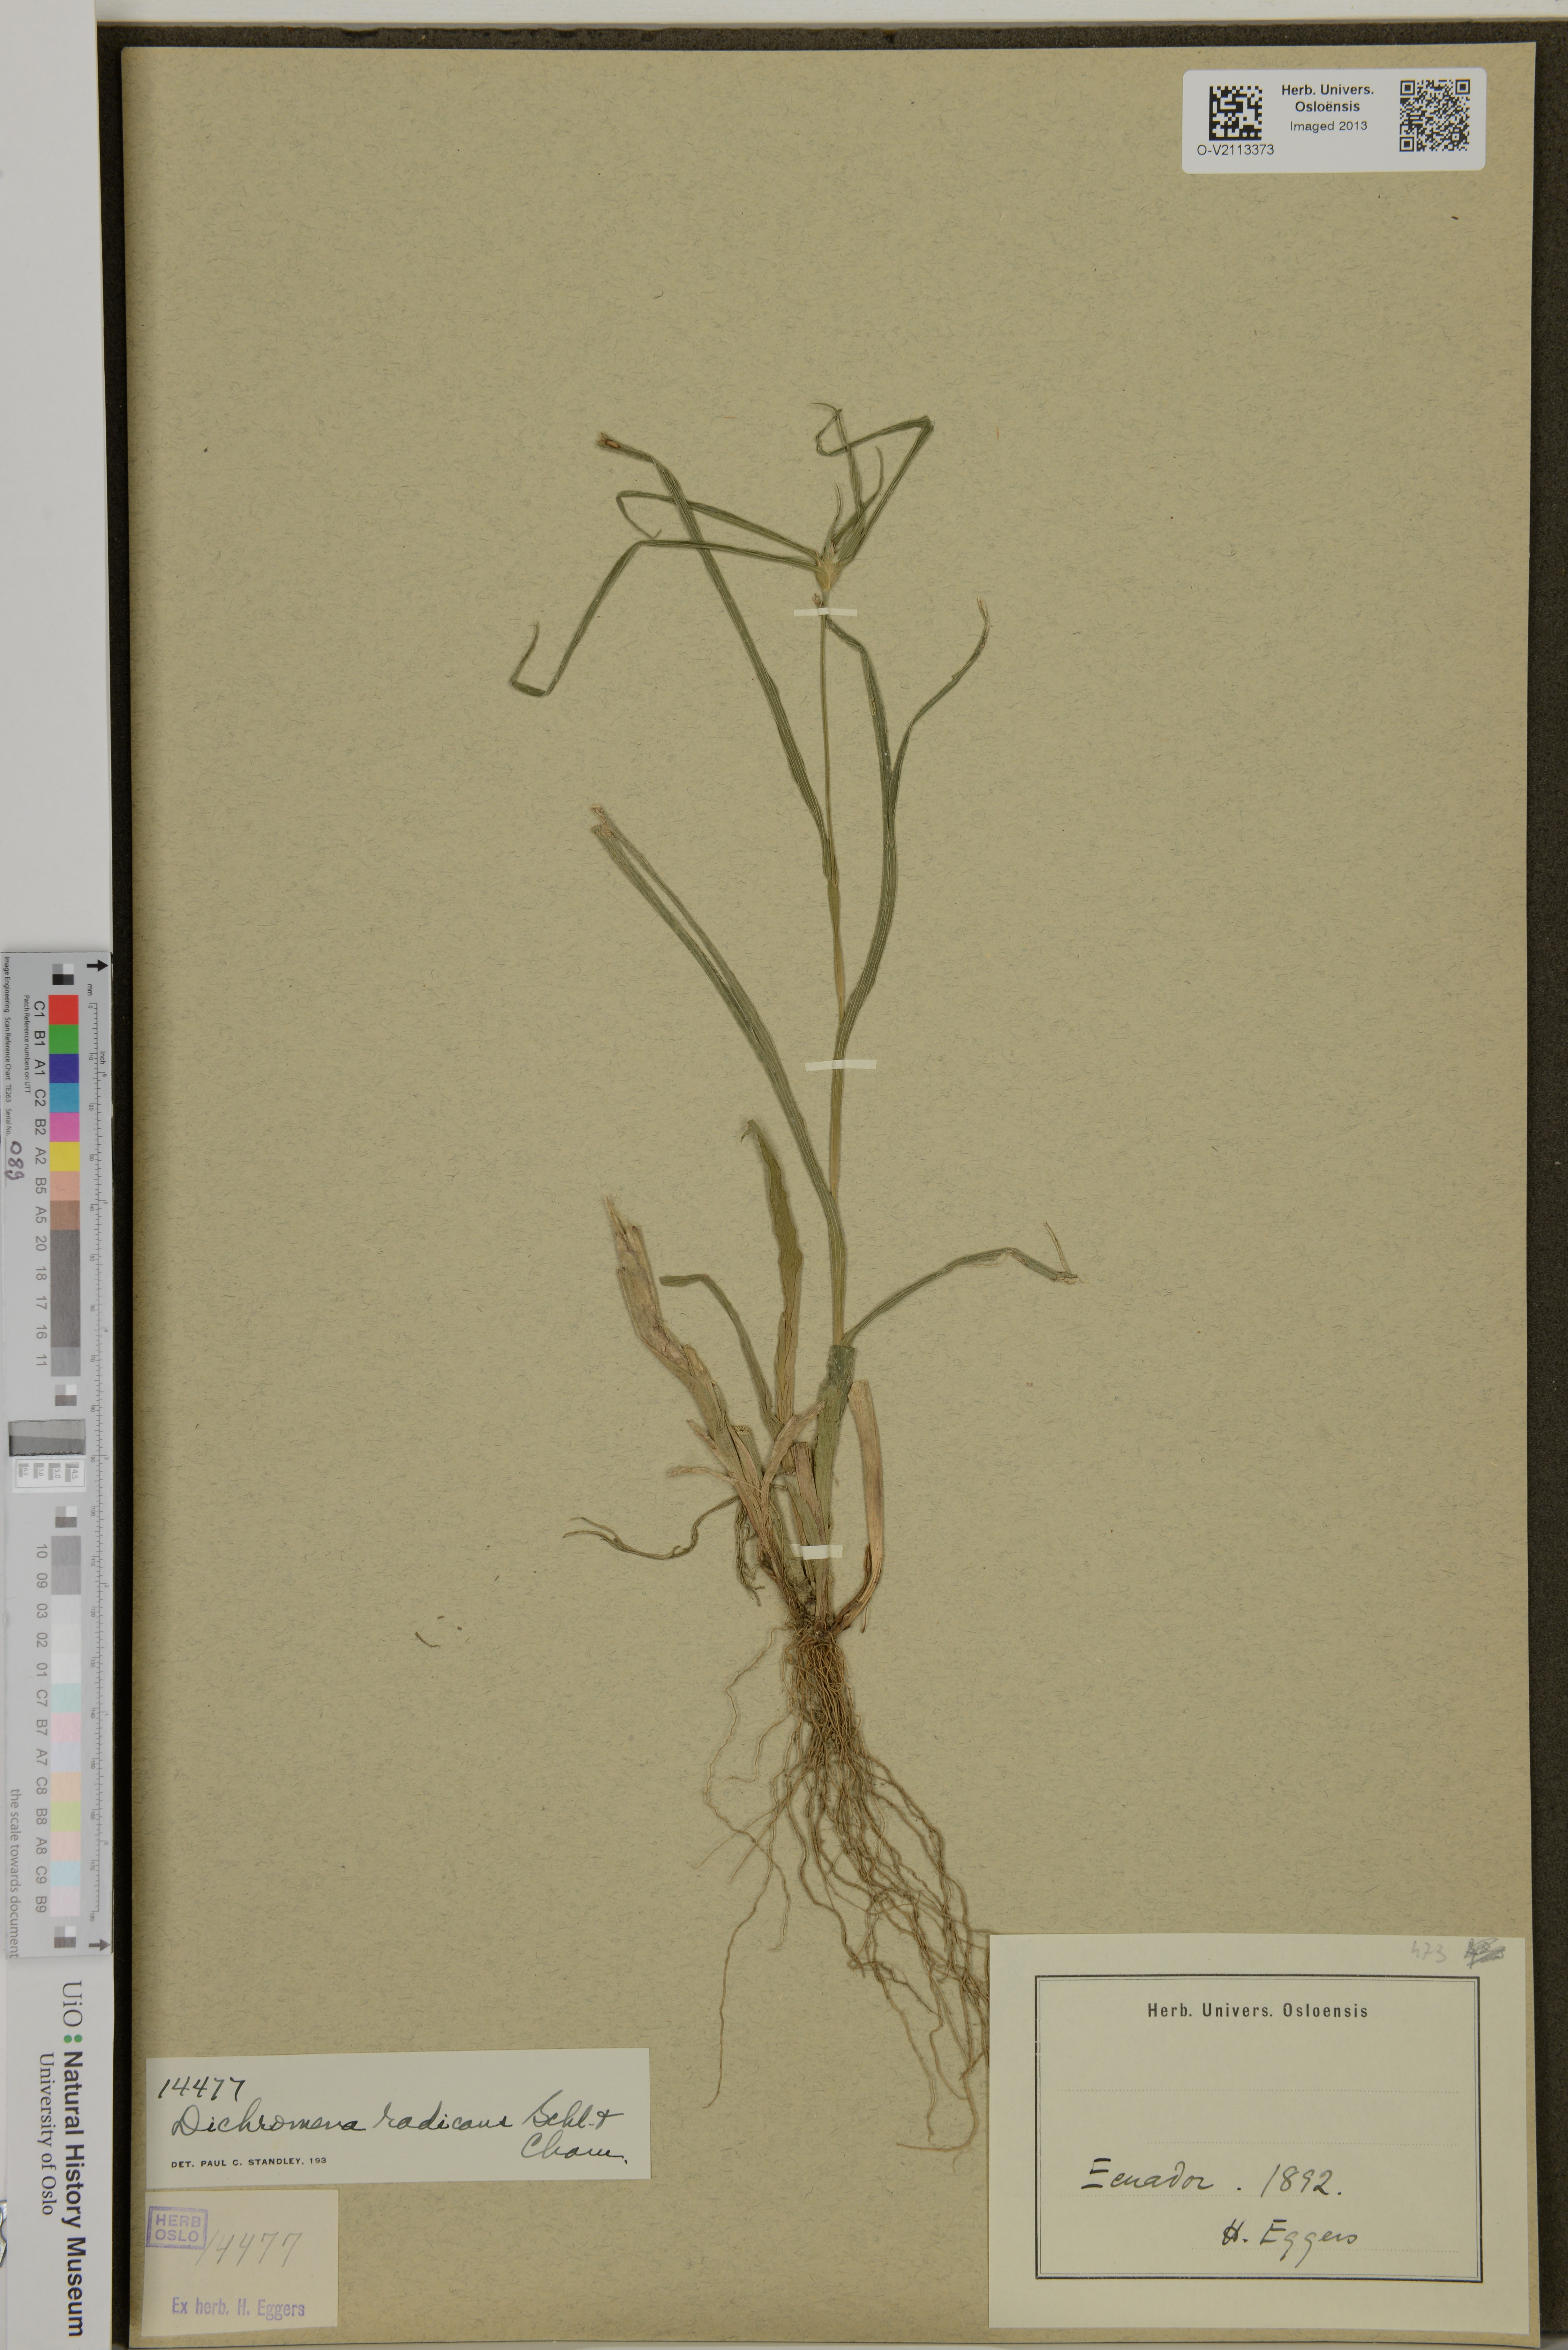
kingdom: Plantae
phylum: Tracheophyta
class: Liliopsida
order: Poales
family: Cyperaceae
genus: Rhynchospora
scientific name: Rhynchospora radicans
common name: Tropical whitetop
